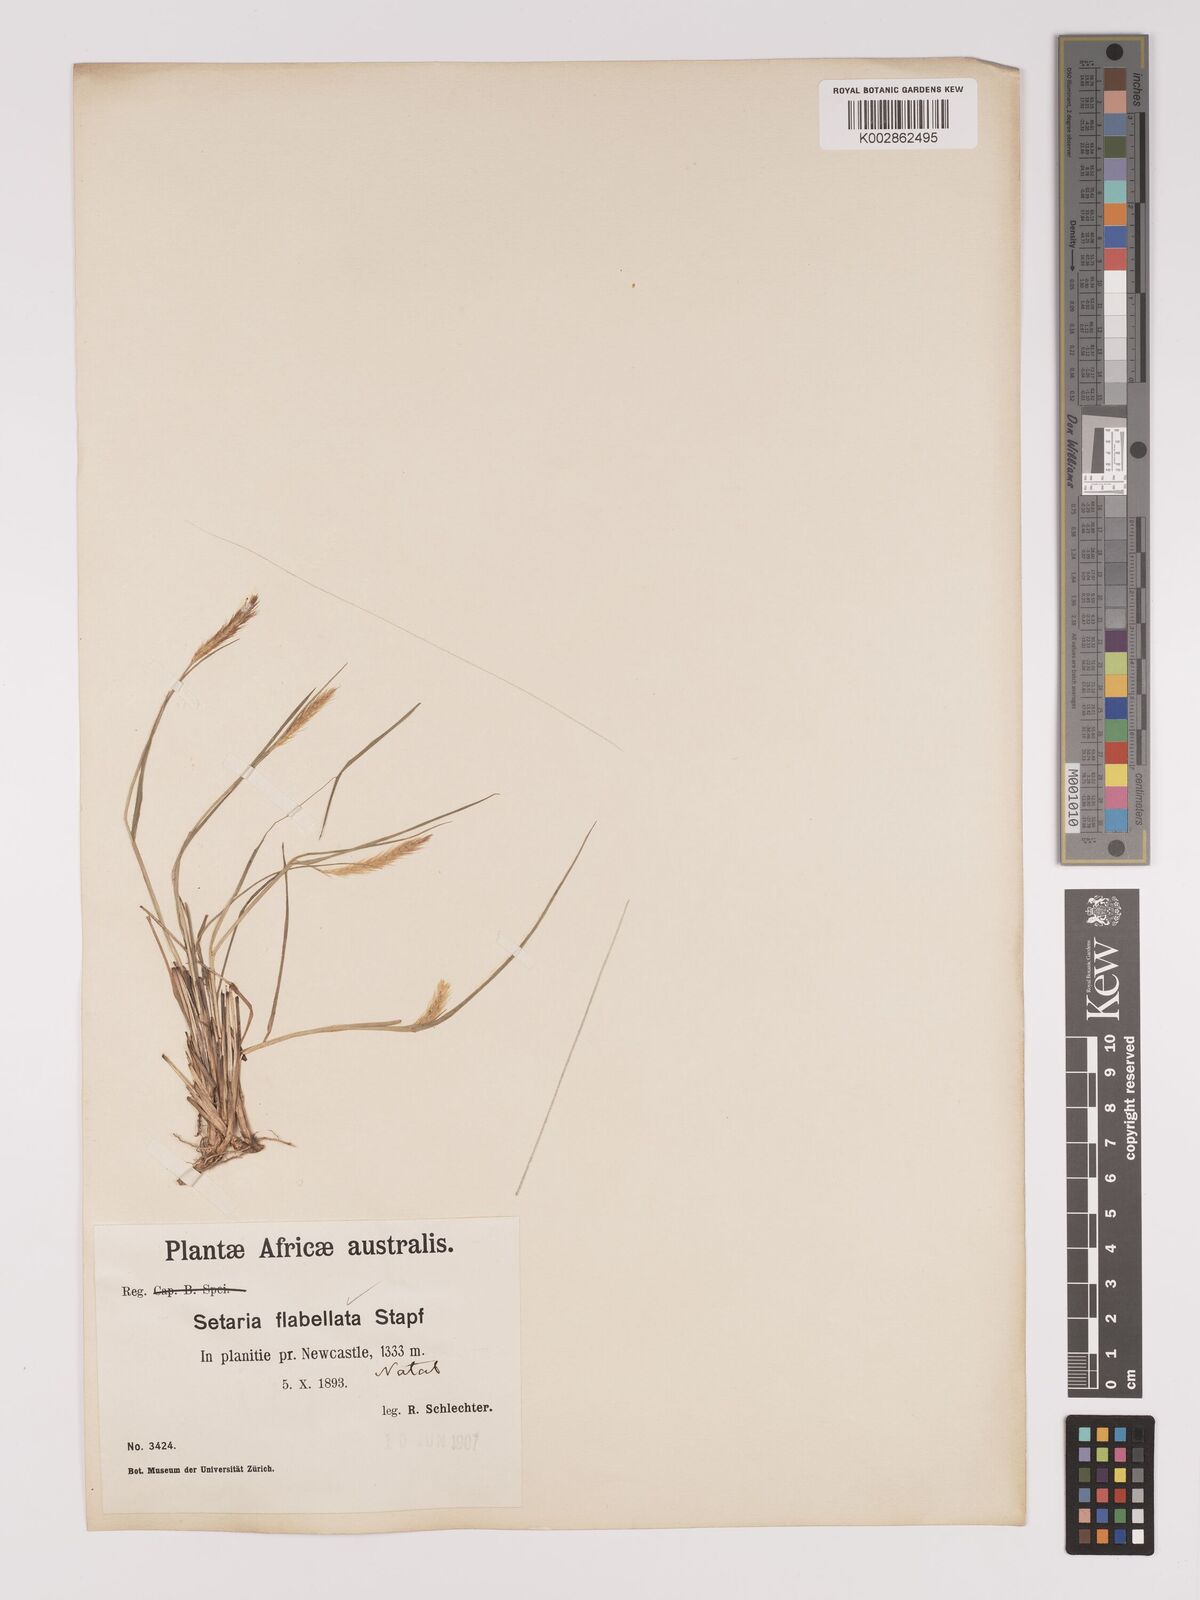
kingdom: Plantae
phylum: Tracheophyta
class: Liliopsida
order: Poales
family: Poaceae
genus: Setaria
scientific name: Setaria sphacelata
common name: African bristlegrass
